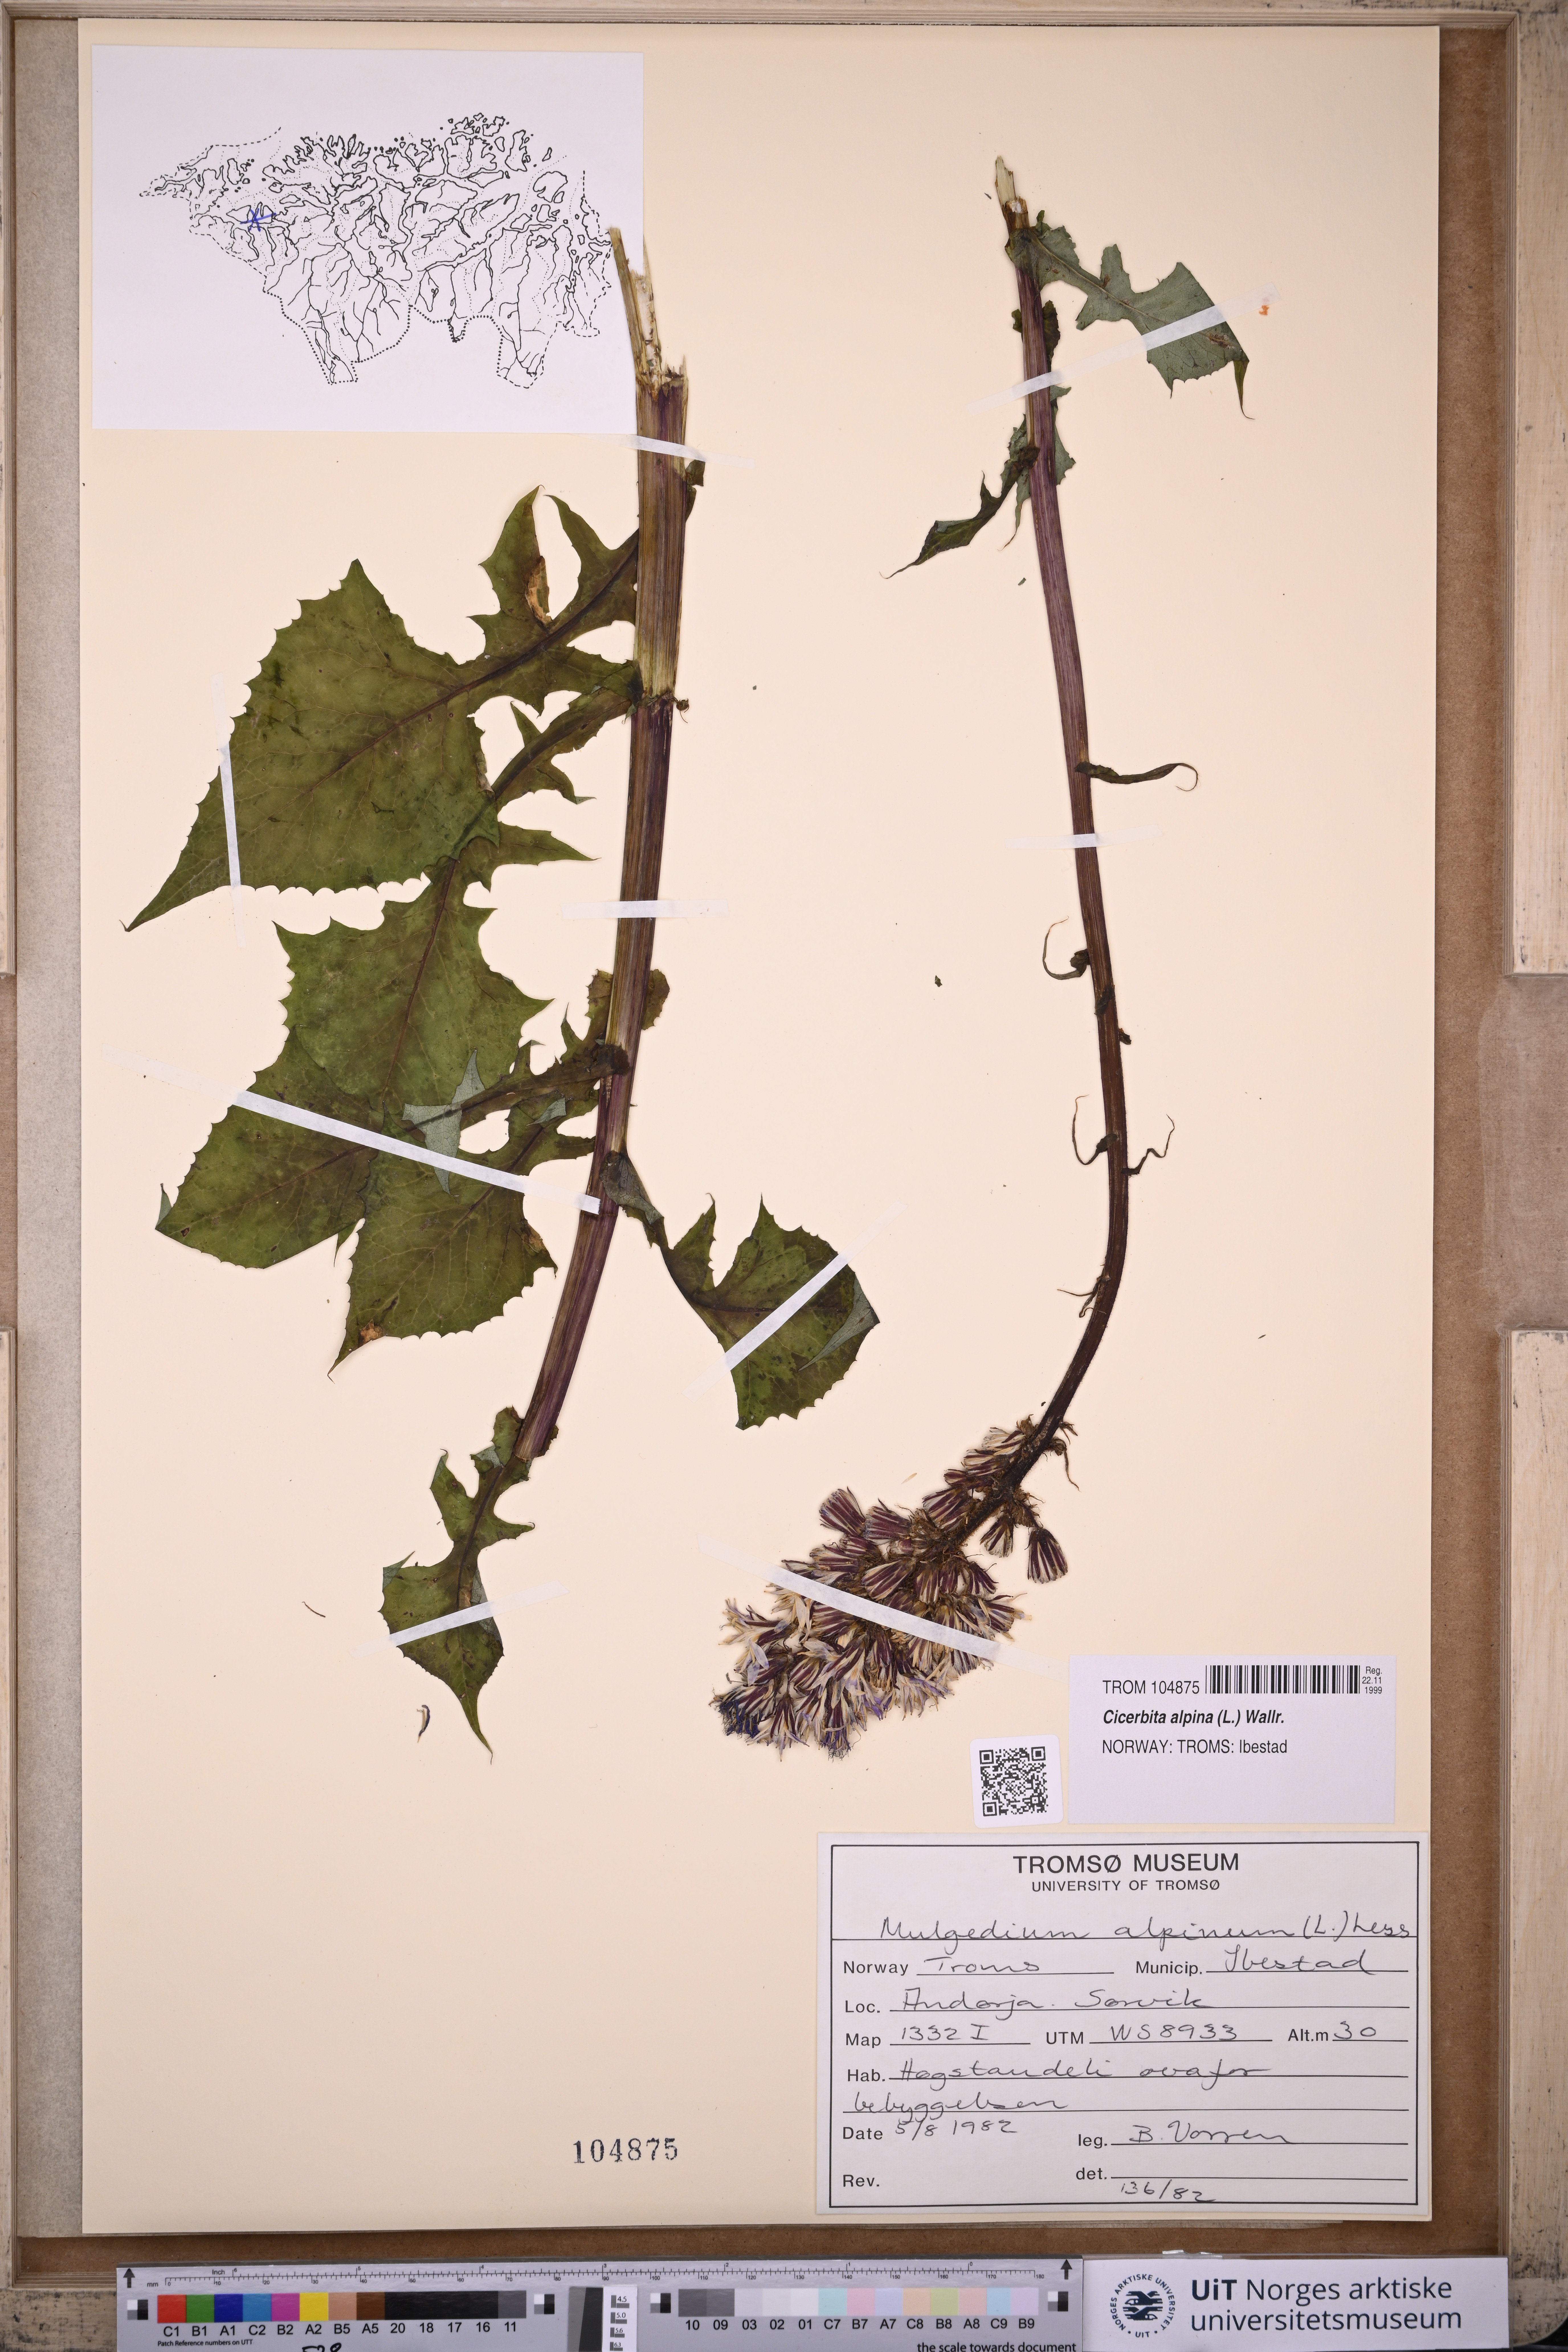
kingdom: Plantae
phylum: Tracheophyta
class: Magnoliopsida
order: Asterales
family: Asteraceae
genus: Cicerbita
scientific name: Cicerbita alpina
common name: Alpine blue-sow-thistle
